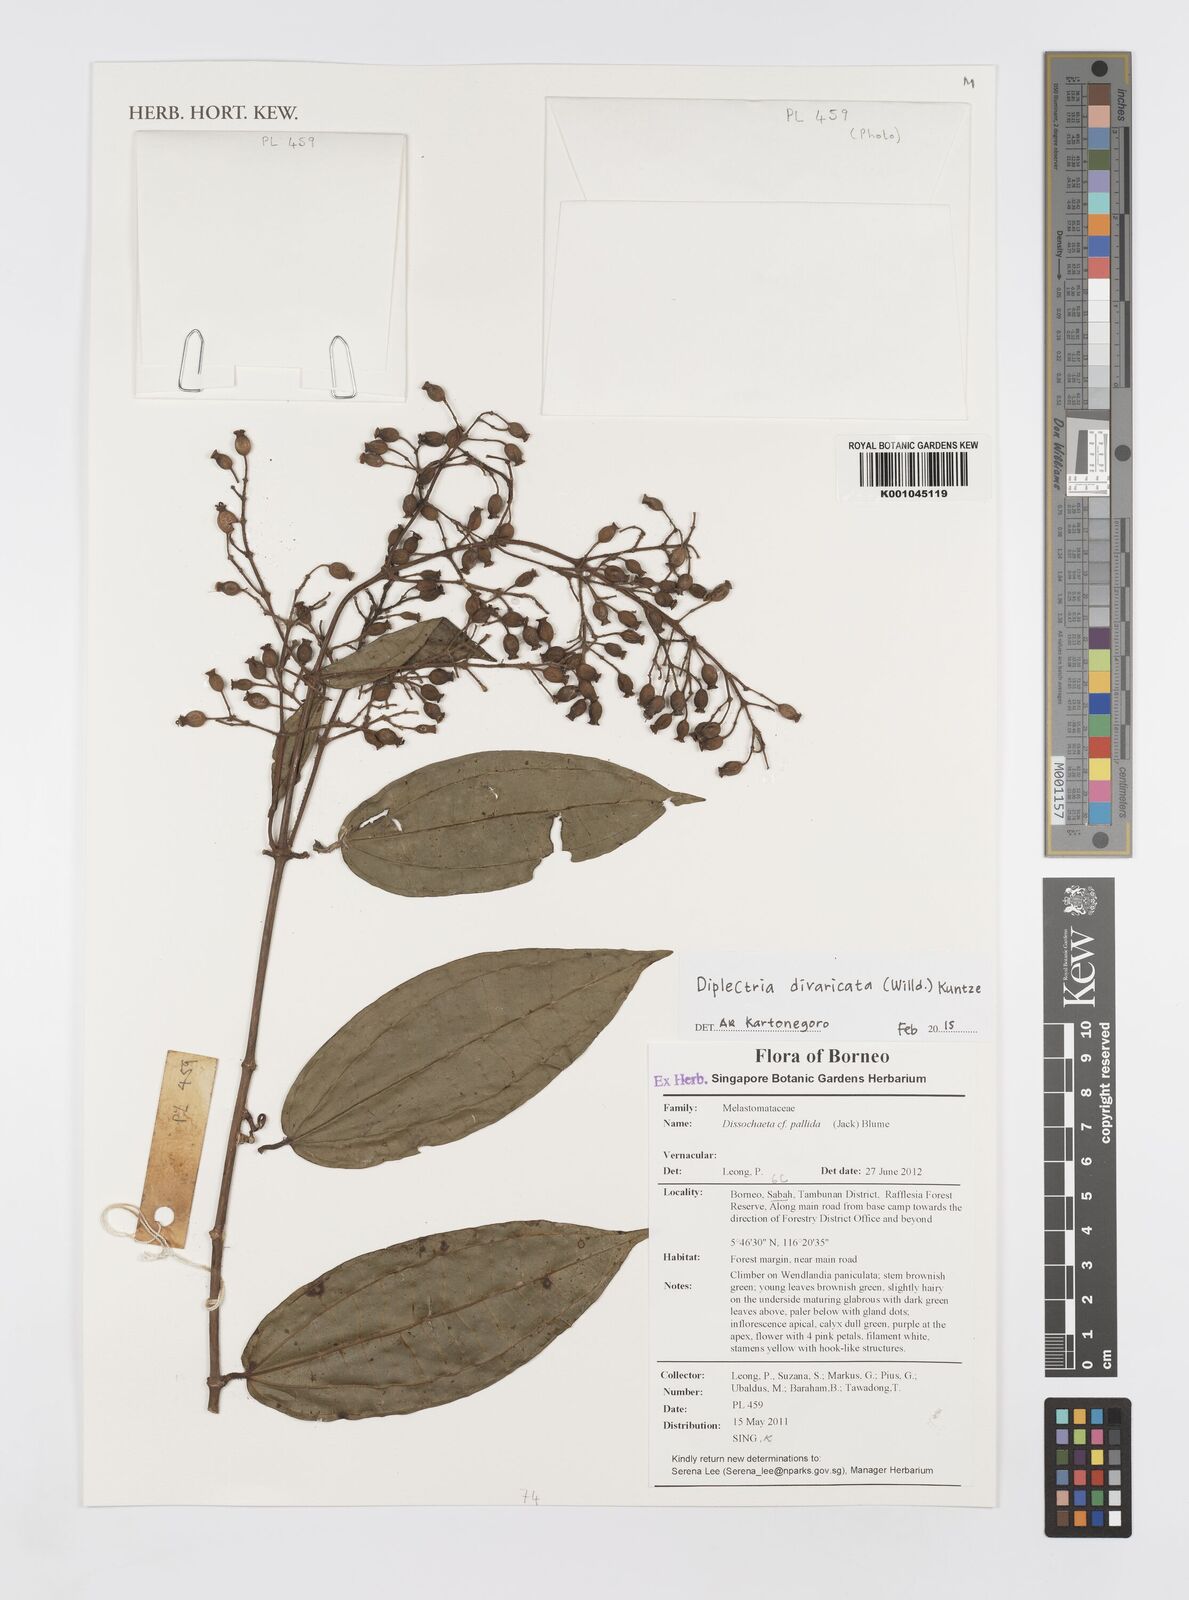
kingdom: Plantae
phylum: Tracheophyta
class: Magnoliopsida
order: Myrtales
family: Melastomataceae
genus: Diplectria
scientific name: Diplectria divaricata
